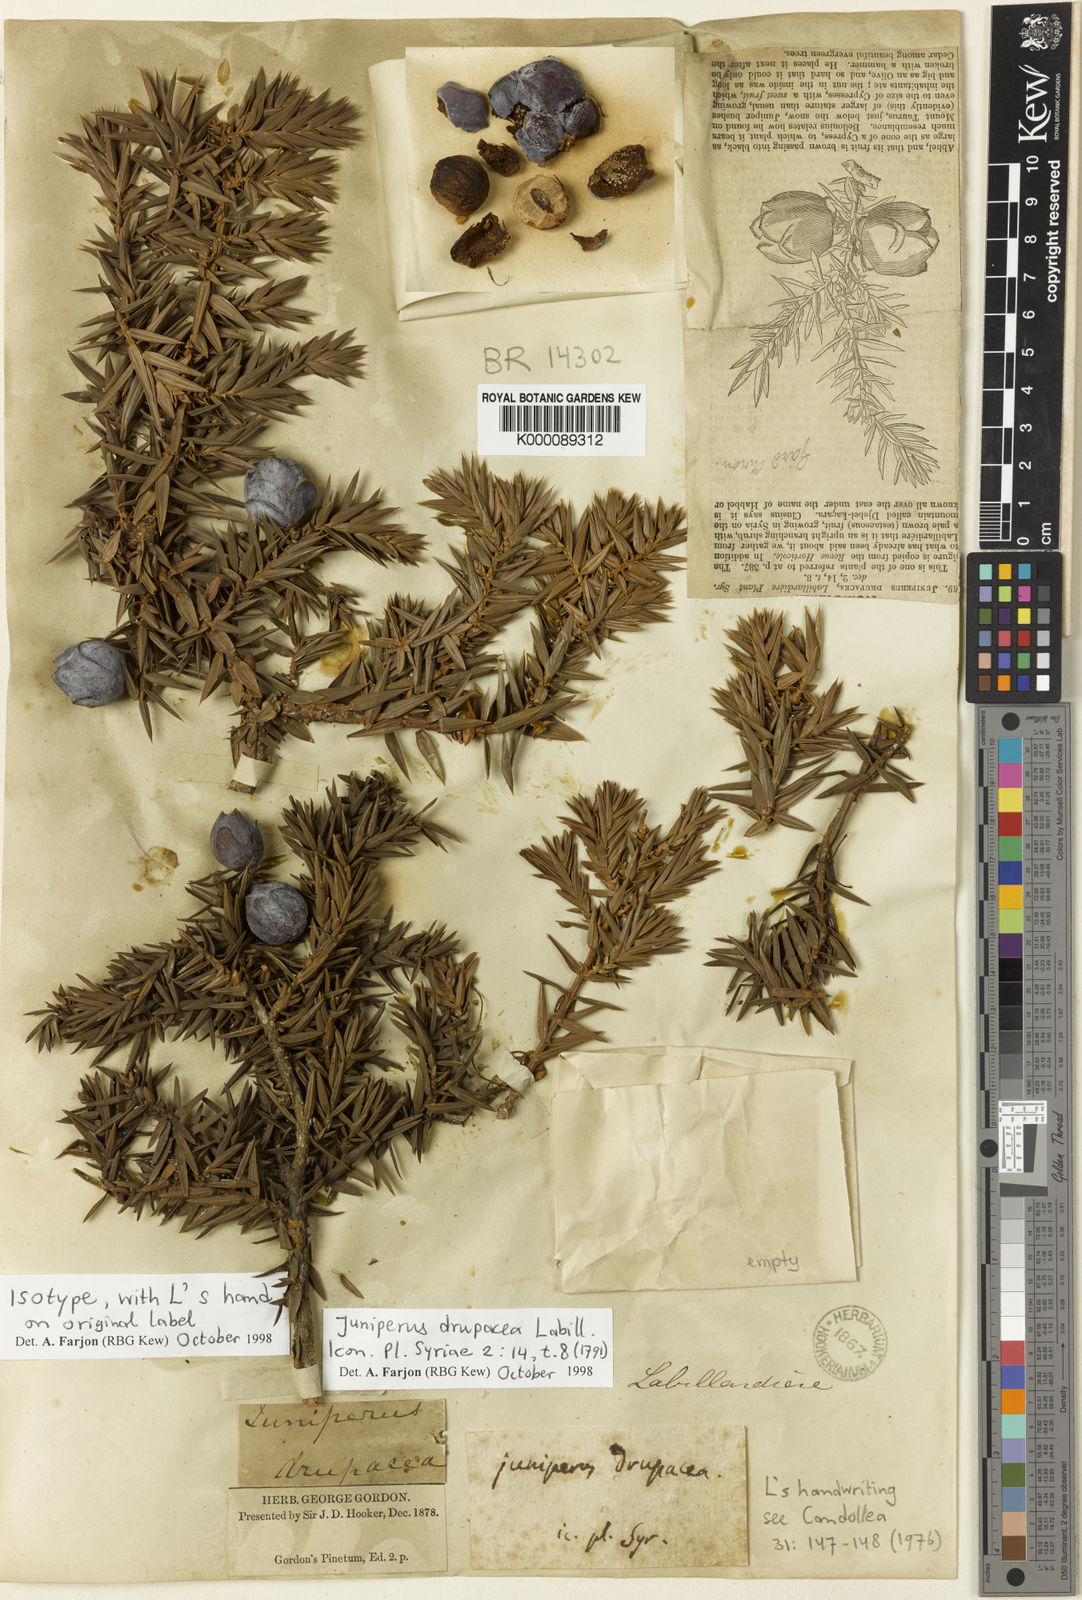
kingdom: Plantae
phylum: Tracheophyta
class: Pinopsida
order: Pinales
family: Cupressaceae
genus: Juniperus
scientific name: Juniperus drupacea
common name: Syrian juniper
